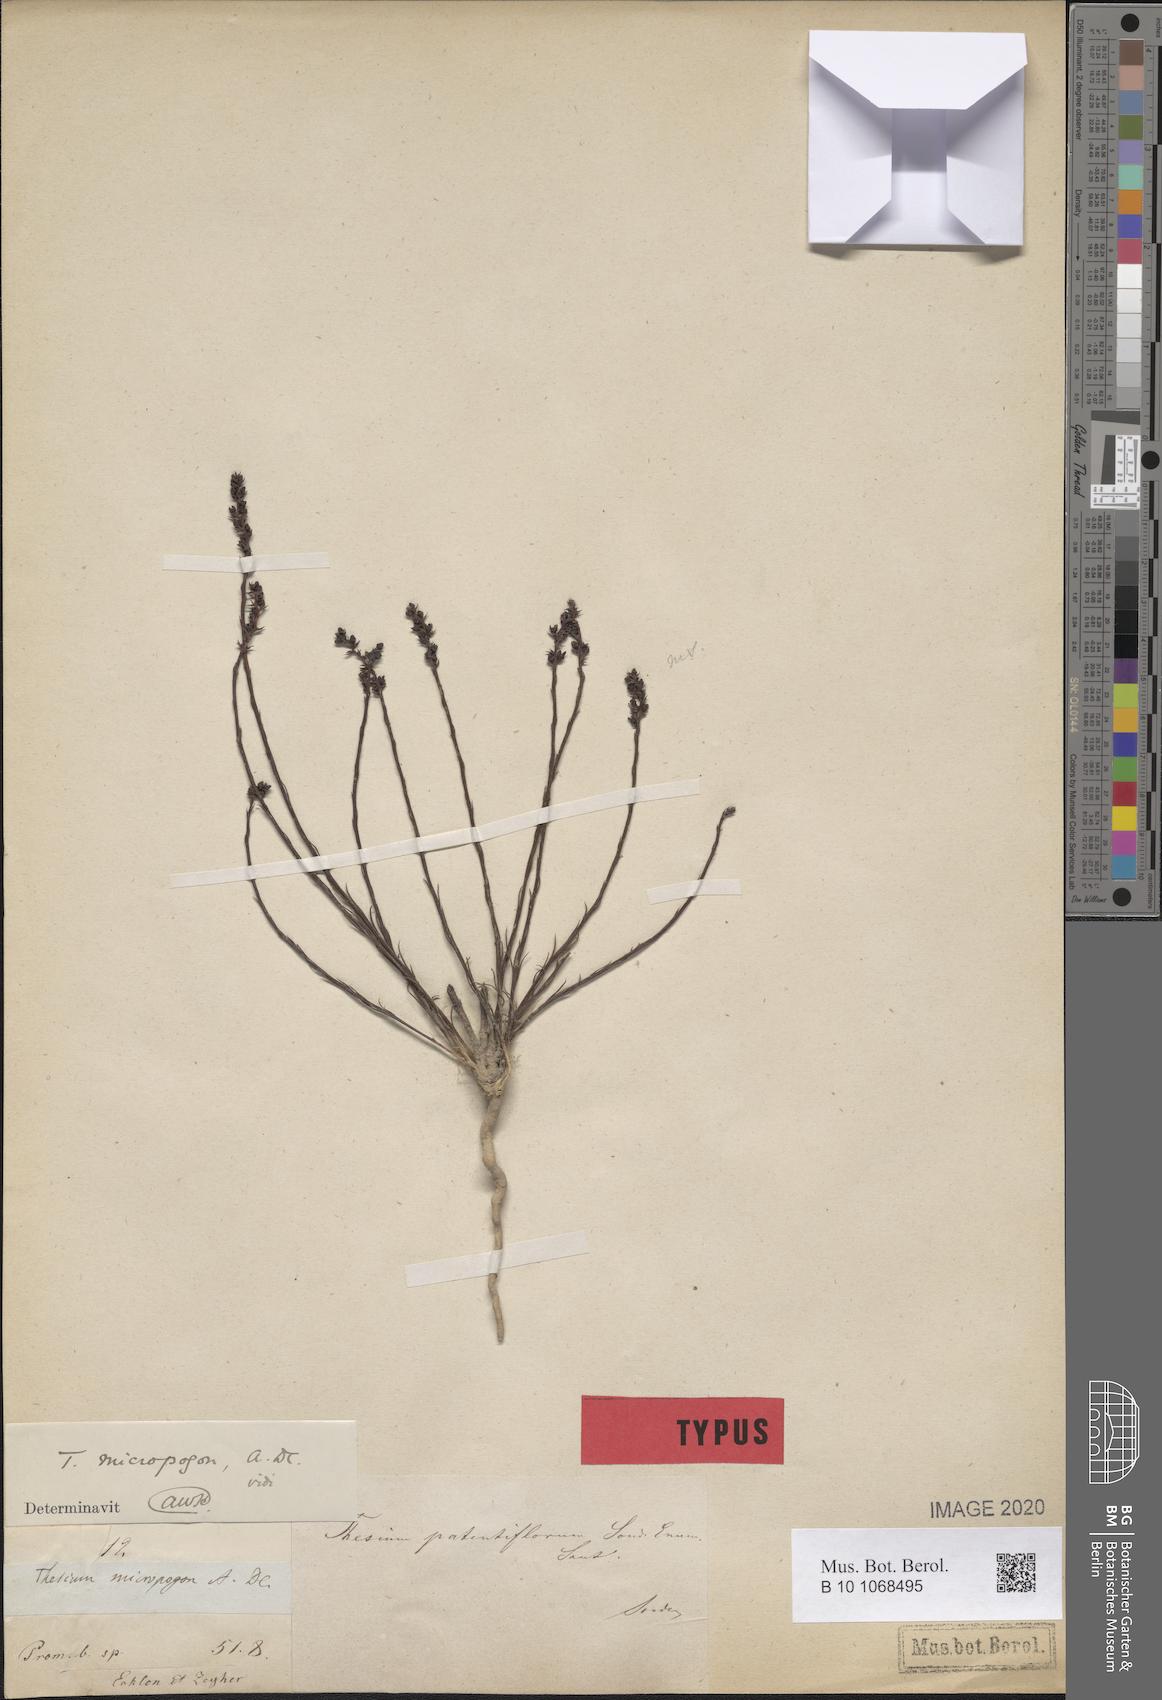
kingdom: Plantae
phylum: Tracheophyta
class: Magnoliopsida
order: Santalales
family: Thesiaceae
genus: Thesium
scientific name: Thesium micropogon
